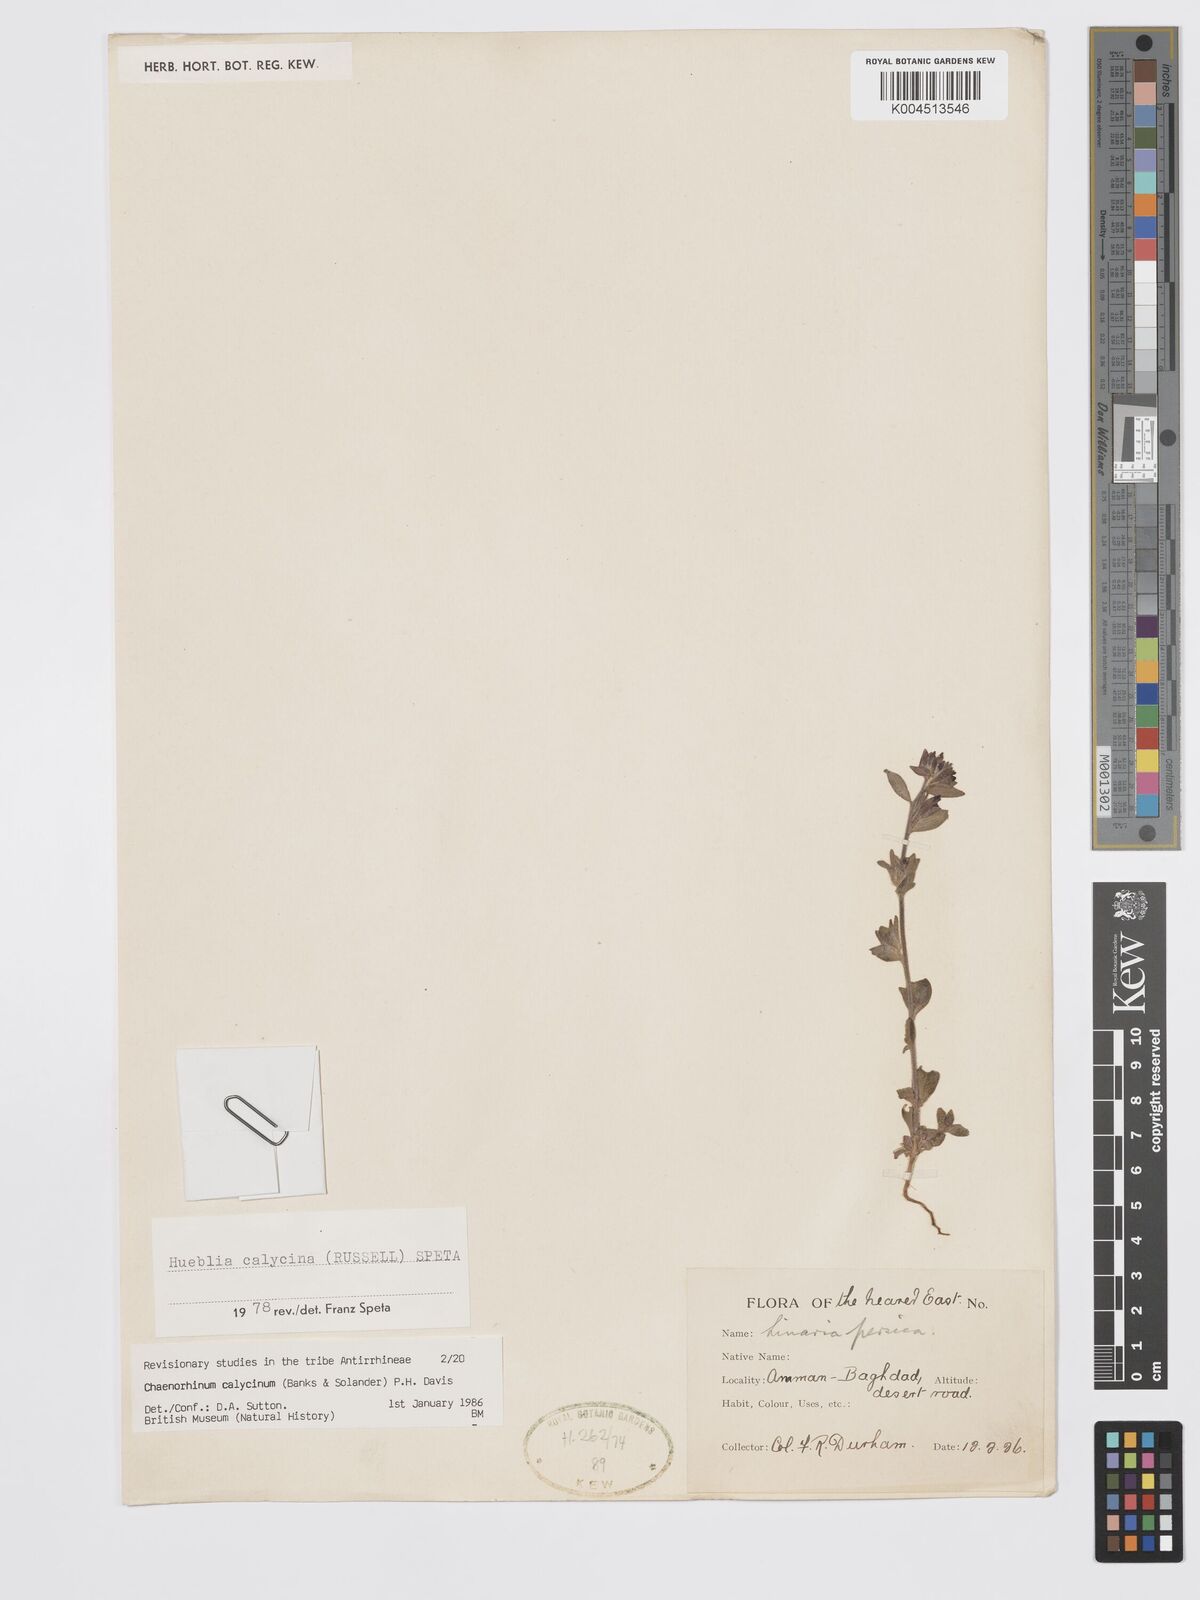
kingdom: Plantae
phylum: Tracheophyta
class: Magnoliopsida
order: Lamiales
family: Plantaginaceae
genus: Chaenorhinum
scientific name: Chaenorhinum calycinum
